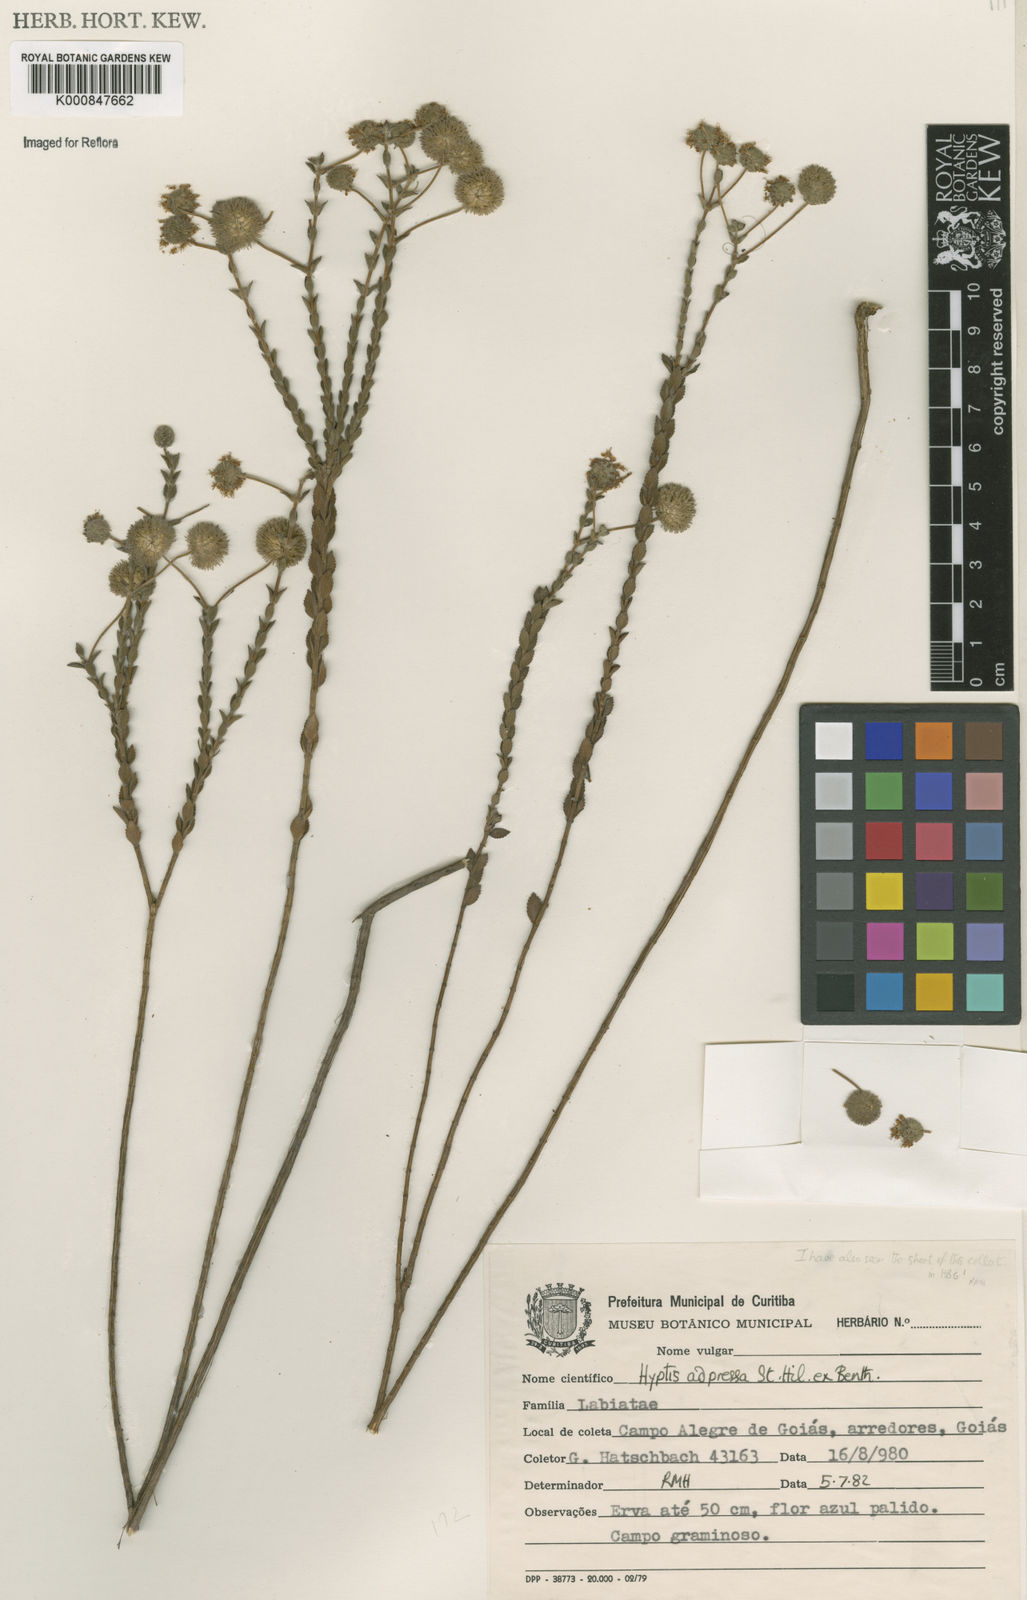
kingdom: Plantae
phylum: Tracheophyta
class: Magnoliopsida
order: Lamiales
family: Lamiaceae
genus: Cyanocephalus
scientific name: Cyanocephalus adpressus
